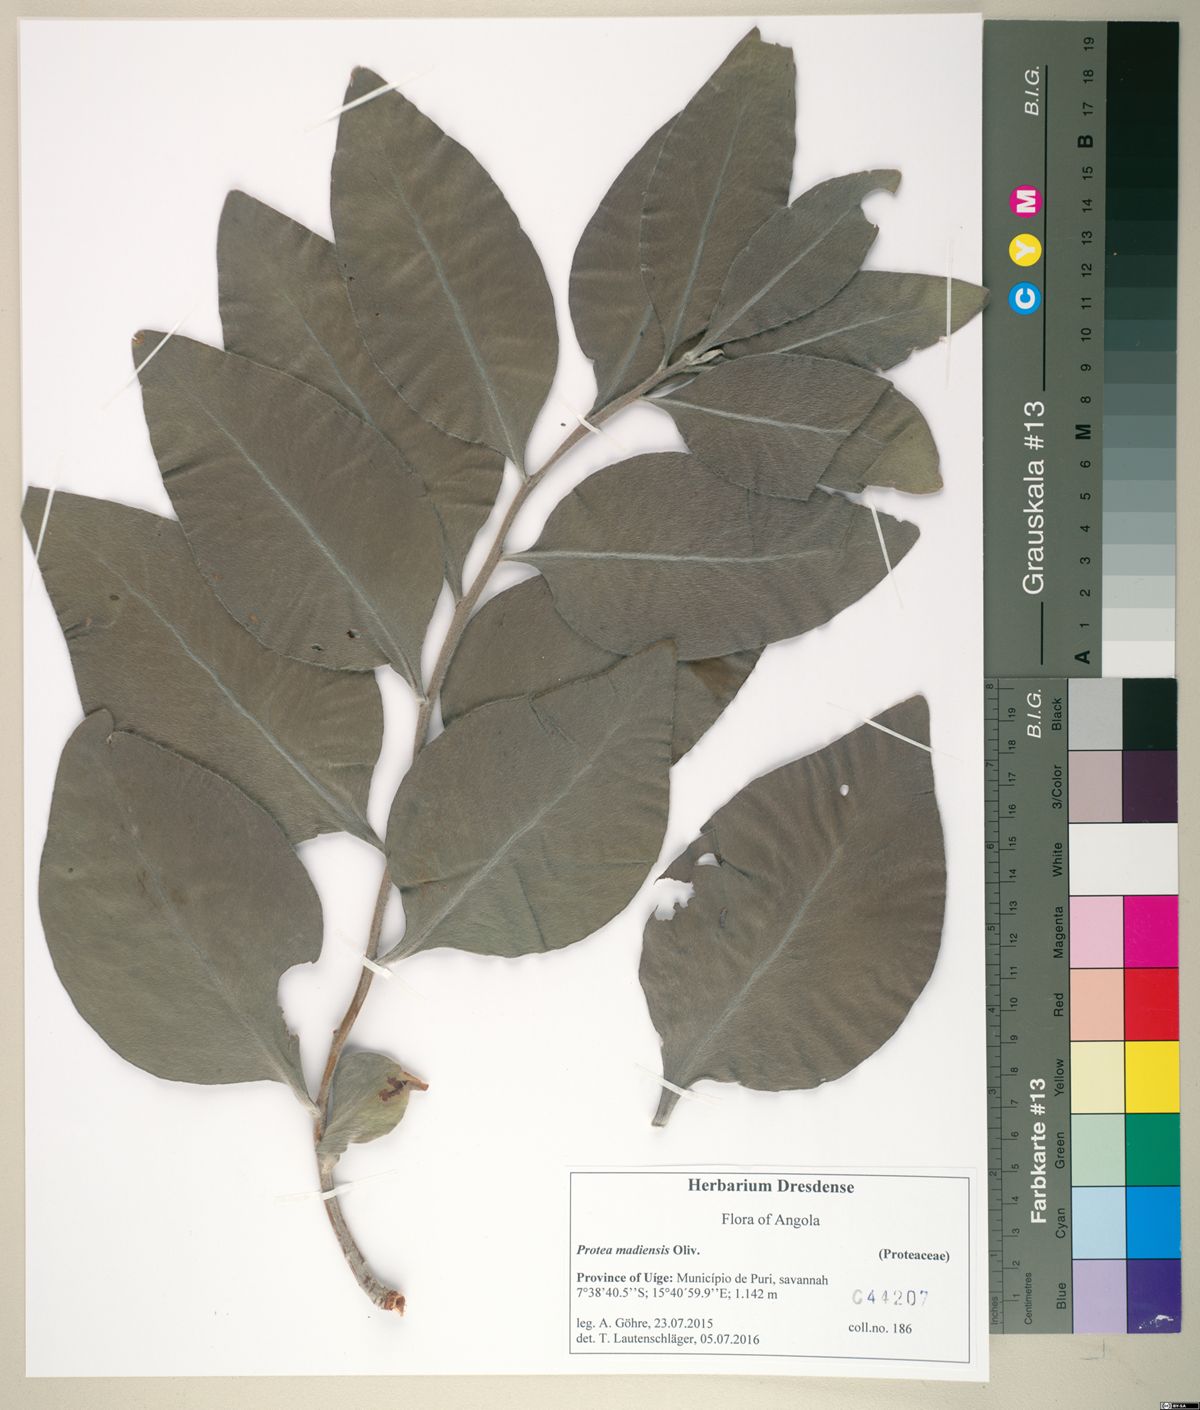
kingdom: Plantae
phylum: Tracheophyta
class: Magnoliopsida
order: Proteales
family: Proteaceae
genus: Protea
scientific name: Protea madiensis
